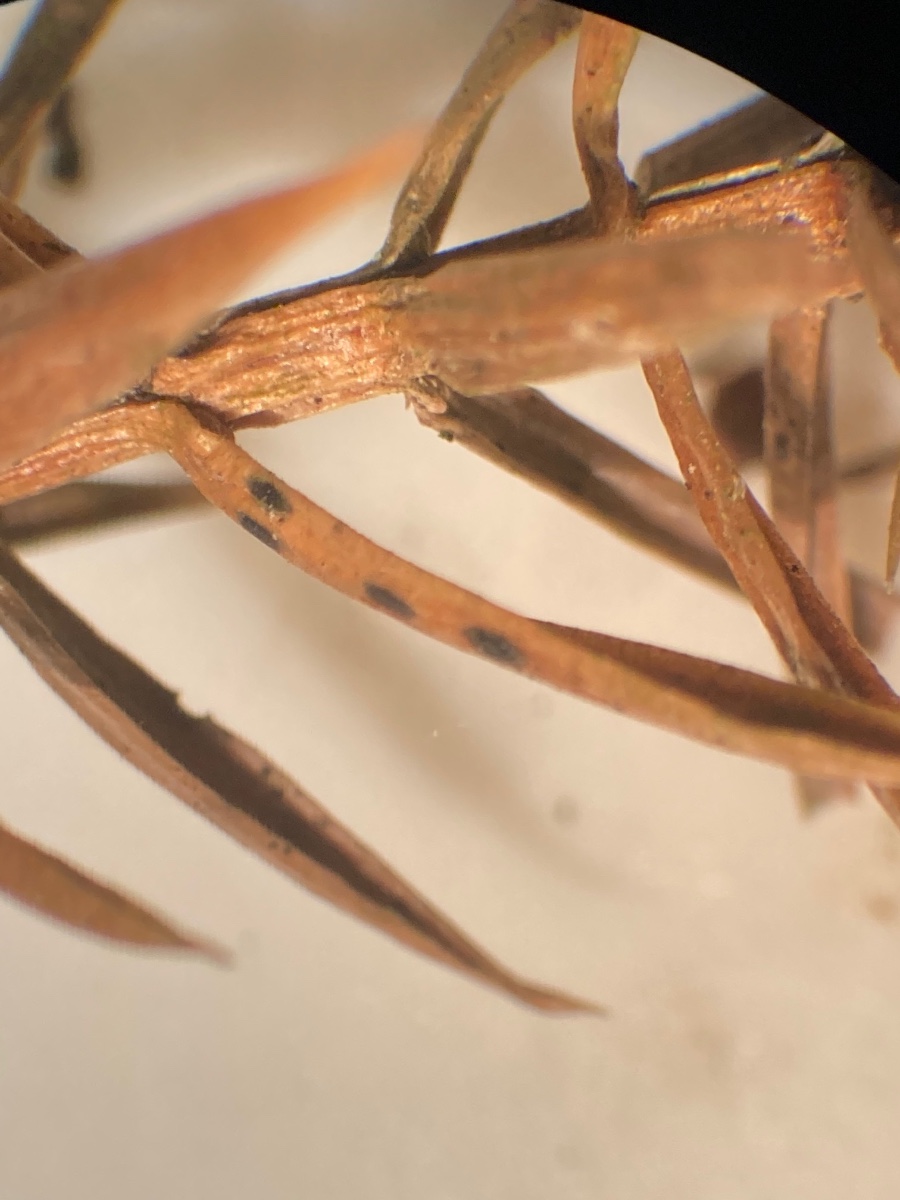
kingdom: Fungi
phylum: Ascomycota
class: Leotiomycetes
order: Rhytismatales
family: Rhytismataceae
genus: Lophodermium
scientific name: Lophodermium juniperinum
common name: ene-fureplet
